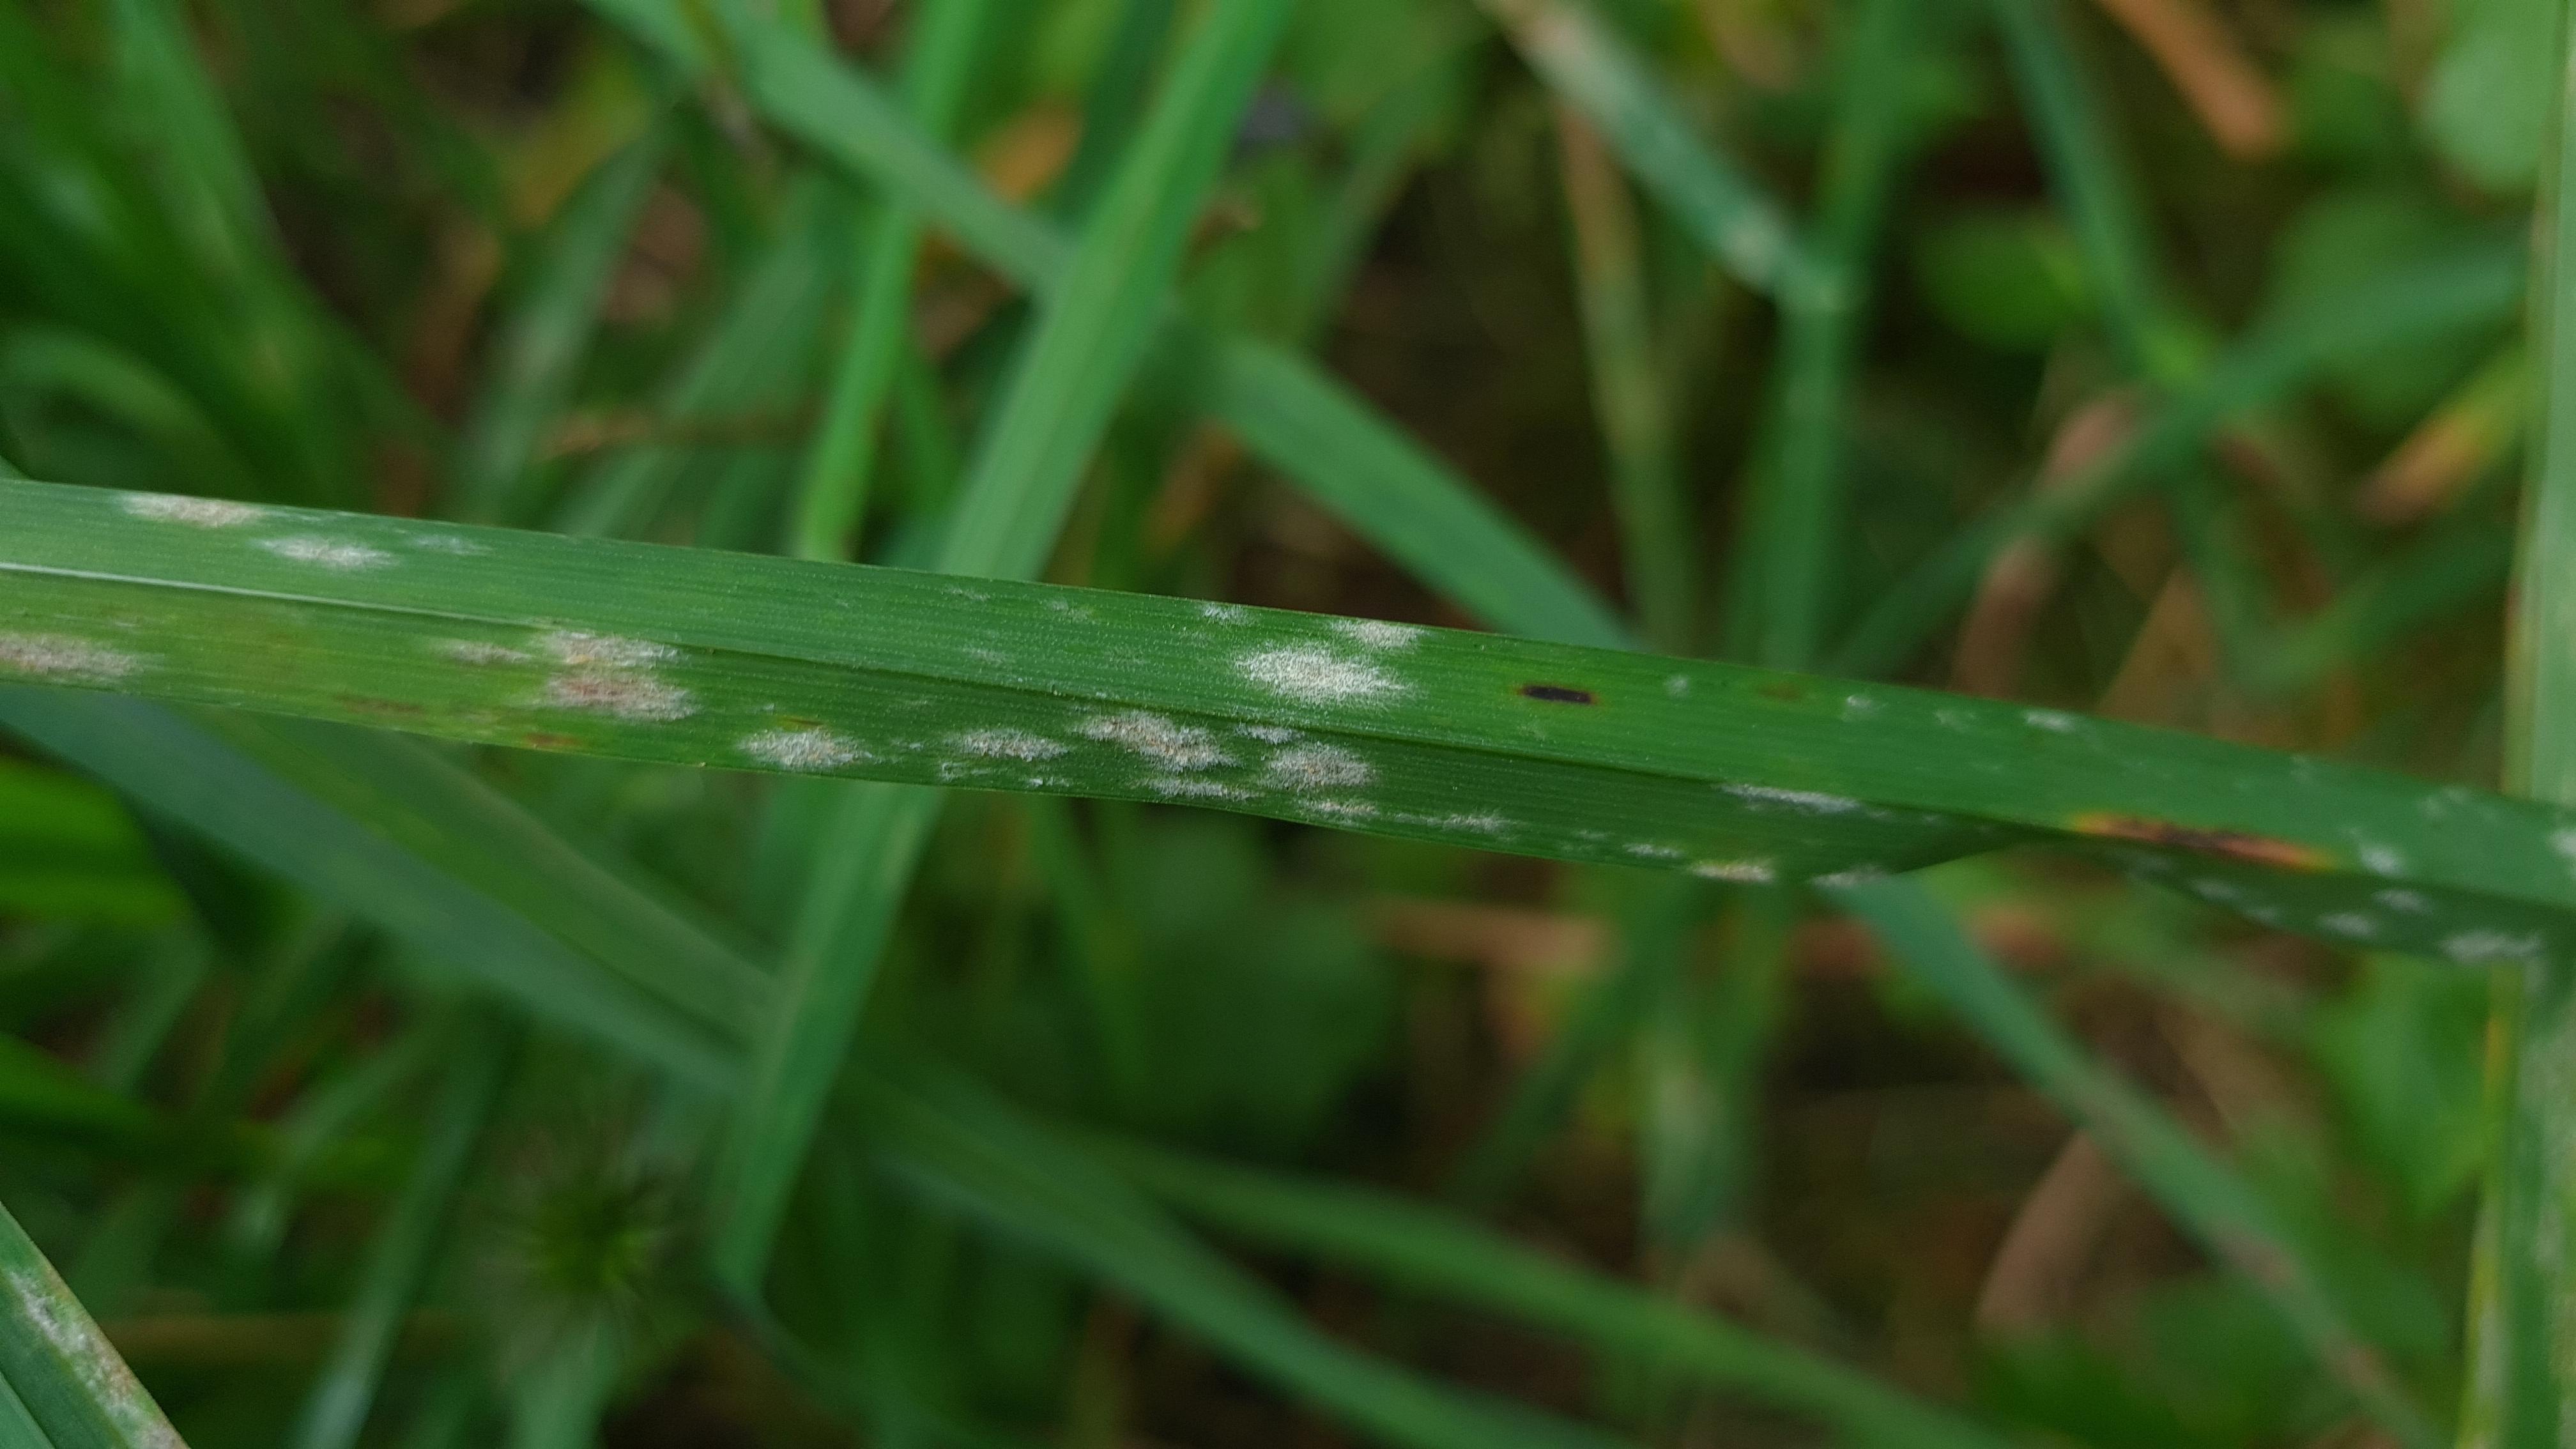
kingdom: Fungi
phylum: Ascomycota
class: Leotiomycetes
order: Helotiales
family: Erysiphaceae
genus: Blumeria
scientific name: Blumeria graminis
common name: græs-meldug
